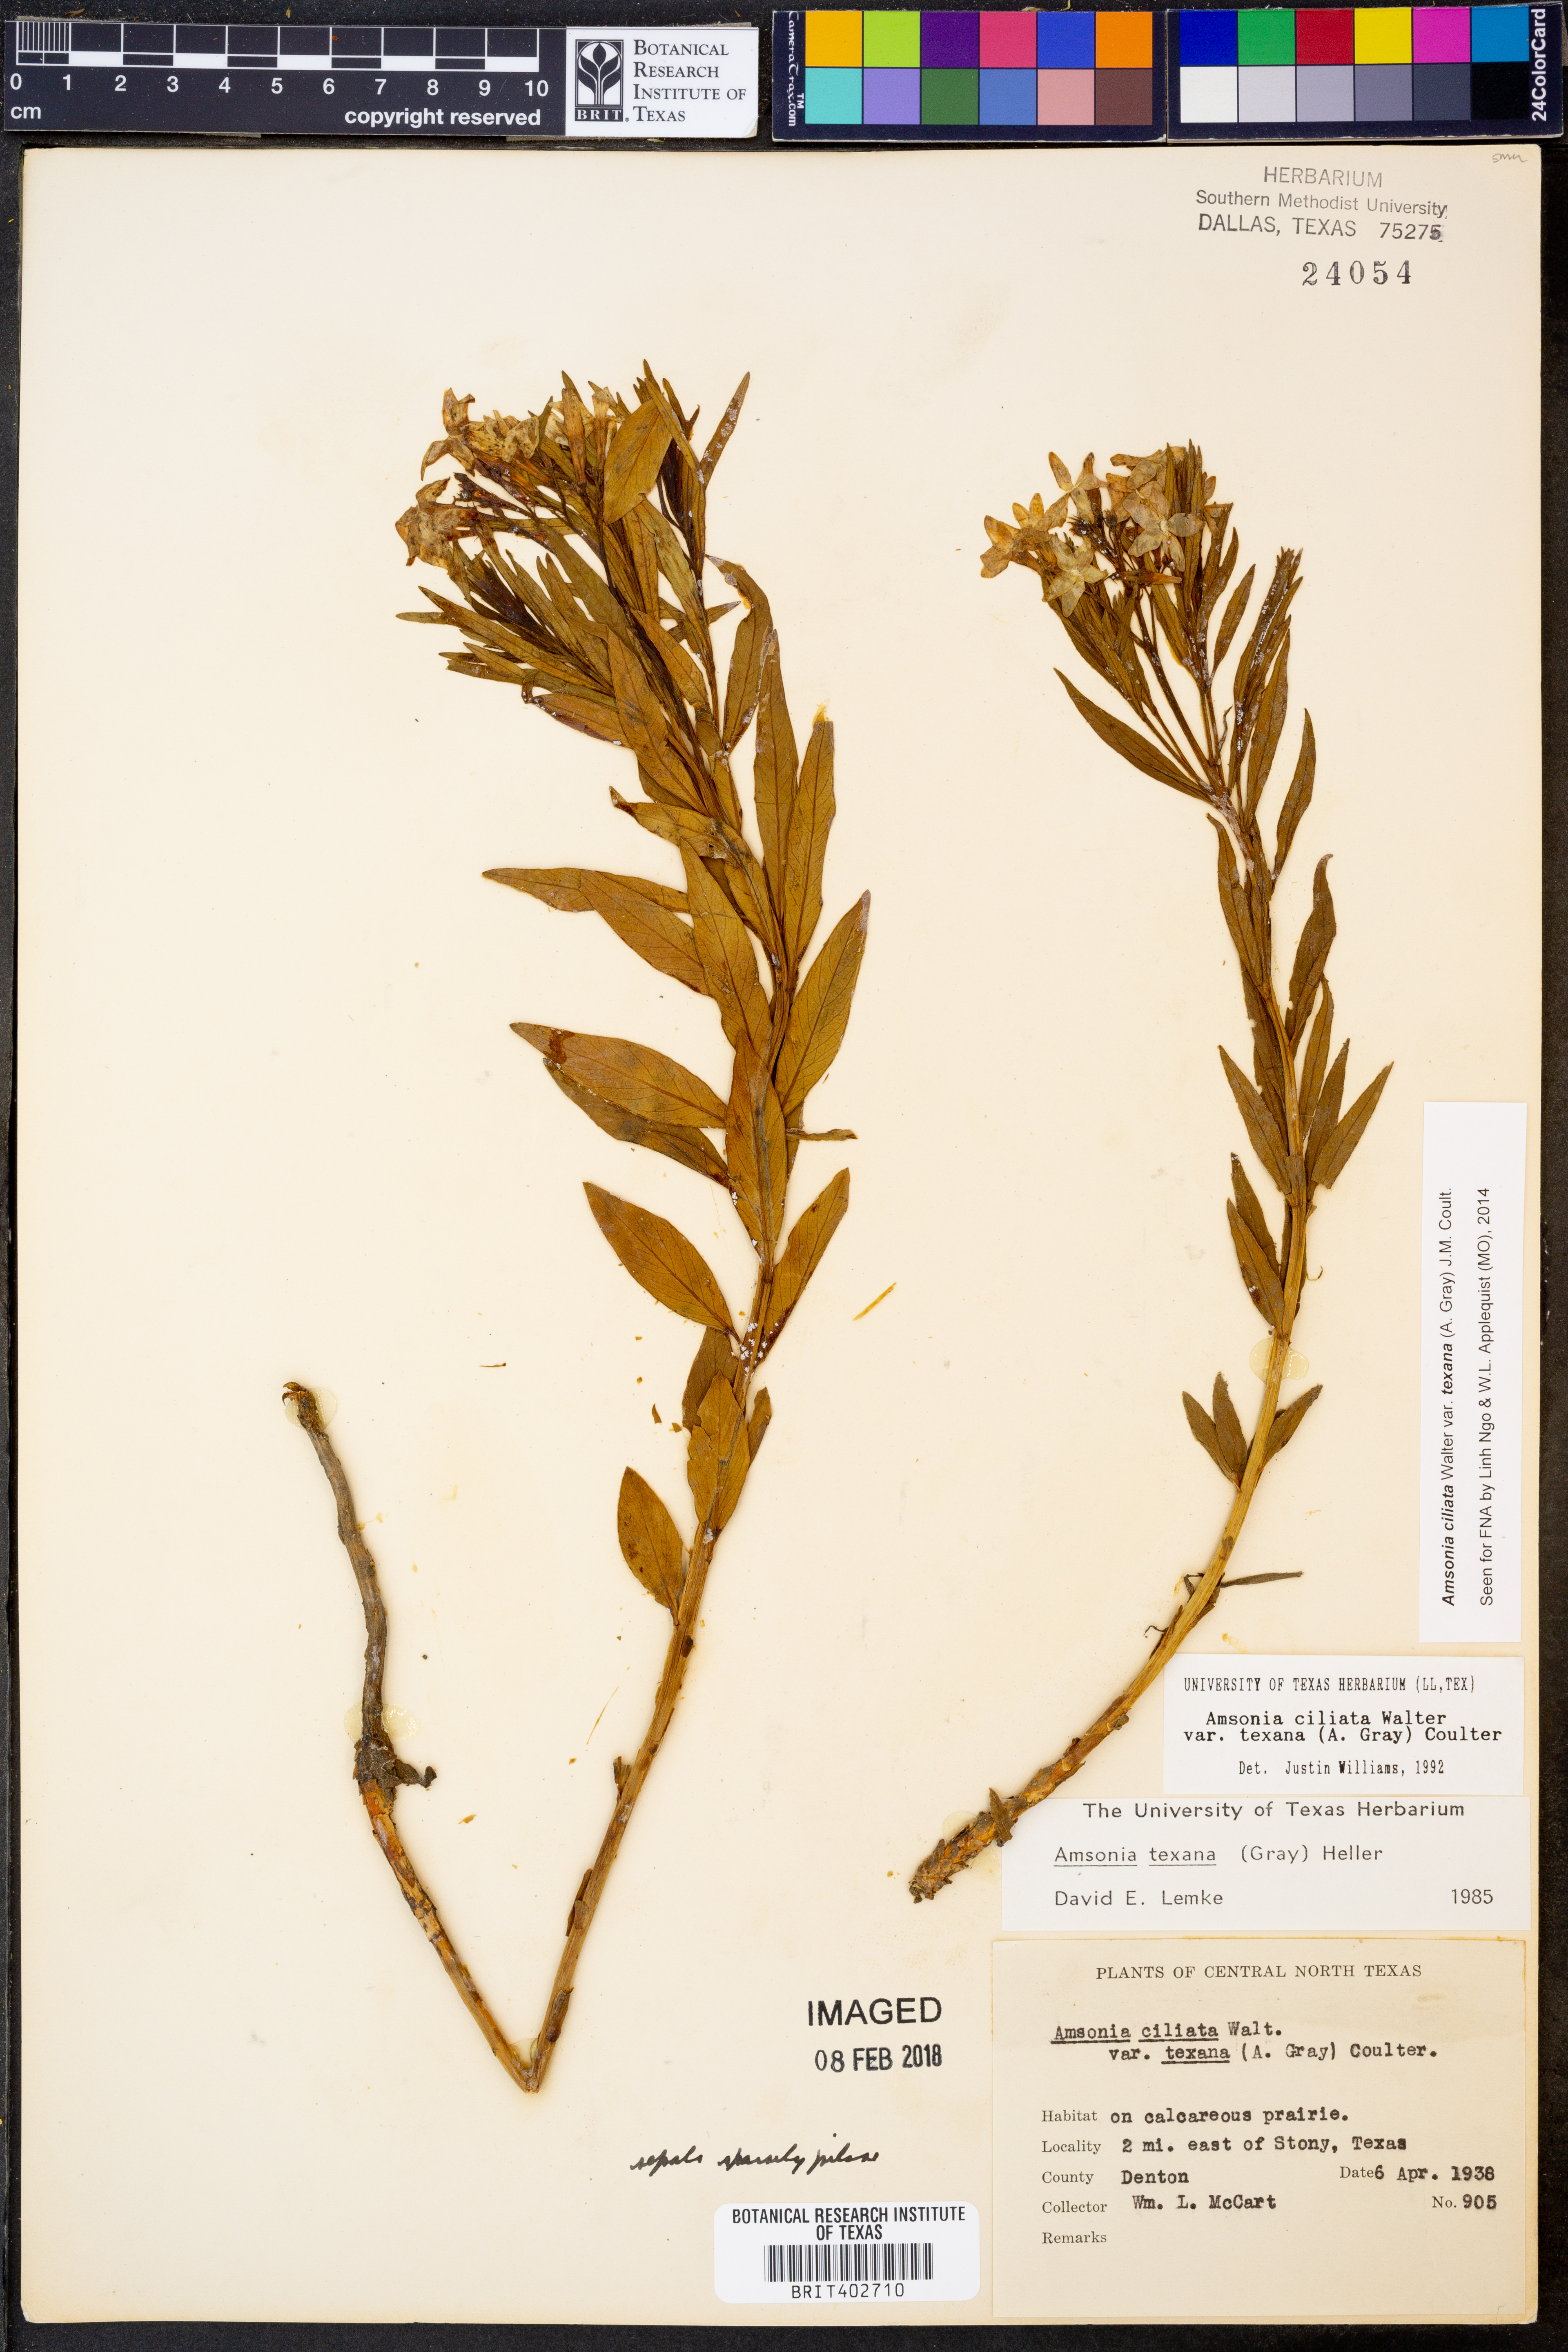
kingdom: Plantae
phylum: Tracheophyta
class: Magnoliopsida
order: Gentianales
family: Apocynaceae
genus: Amsonia
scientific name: Amsonia ciliata
